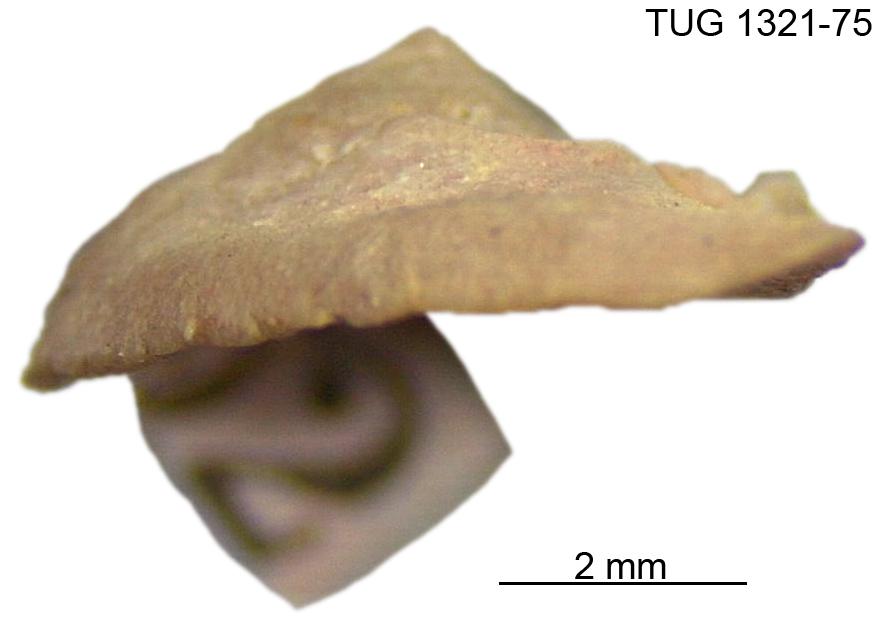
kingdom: Animalia
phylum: Brachiopoda
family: Sowerbyellidae
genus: Sowerbyella
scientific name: Sowerbyella liliifera
